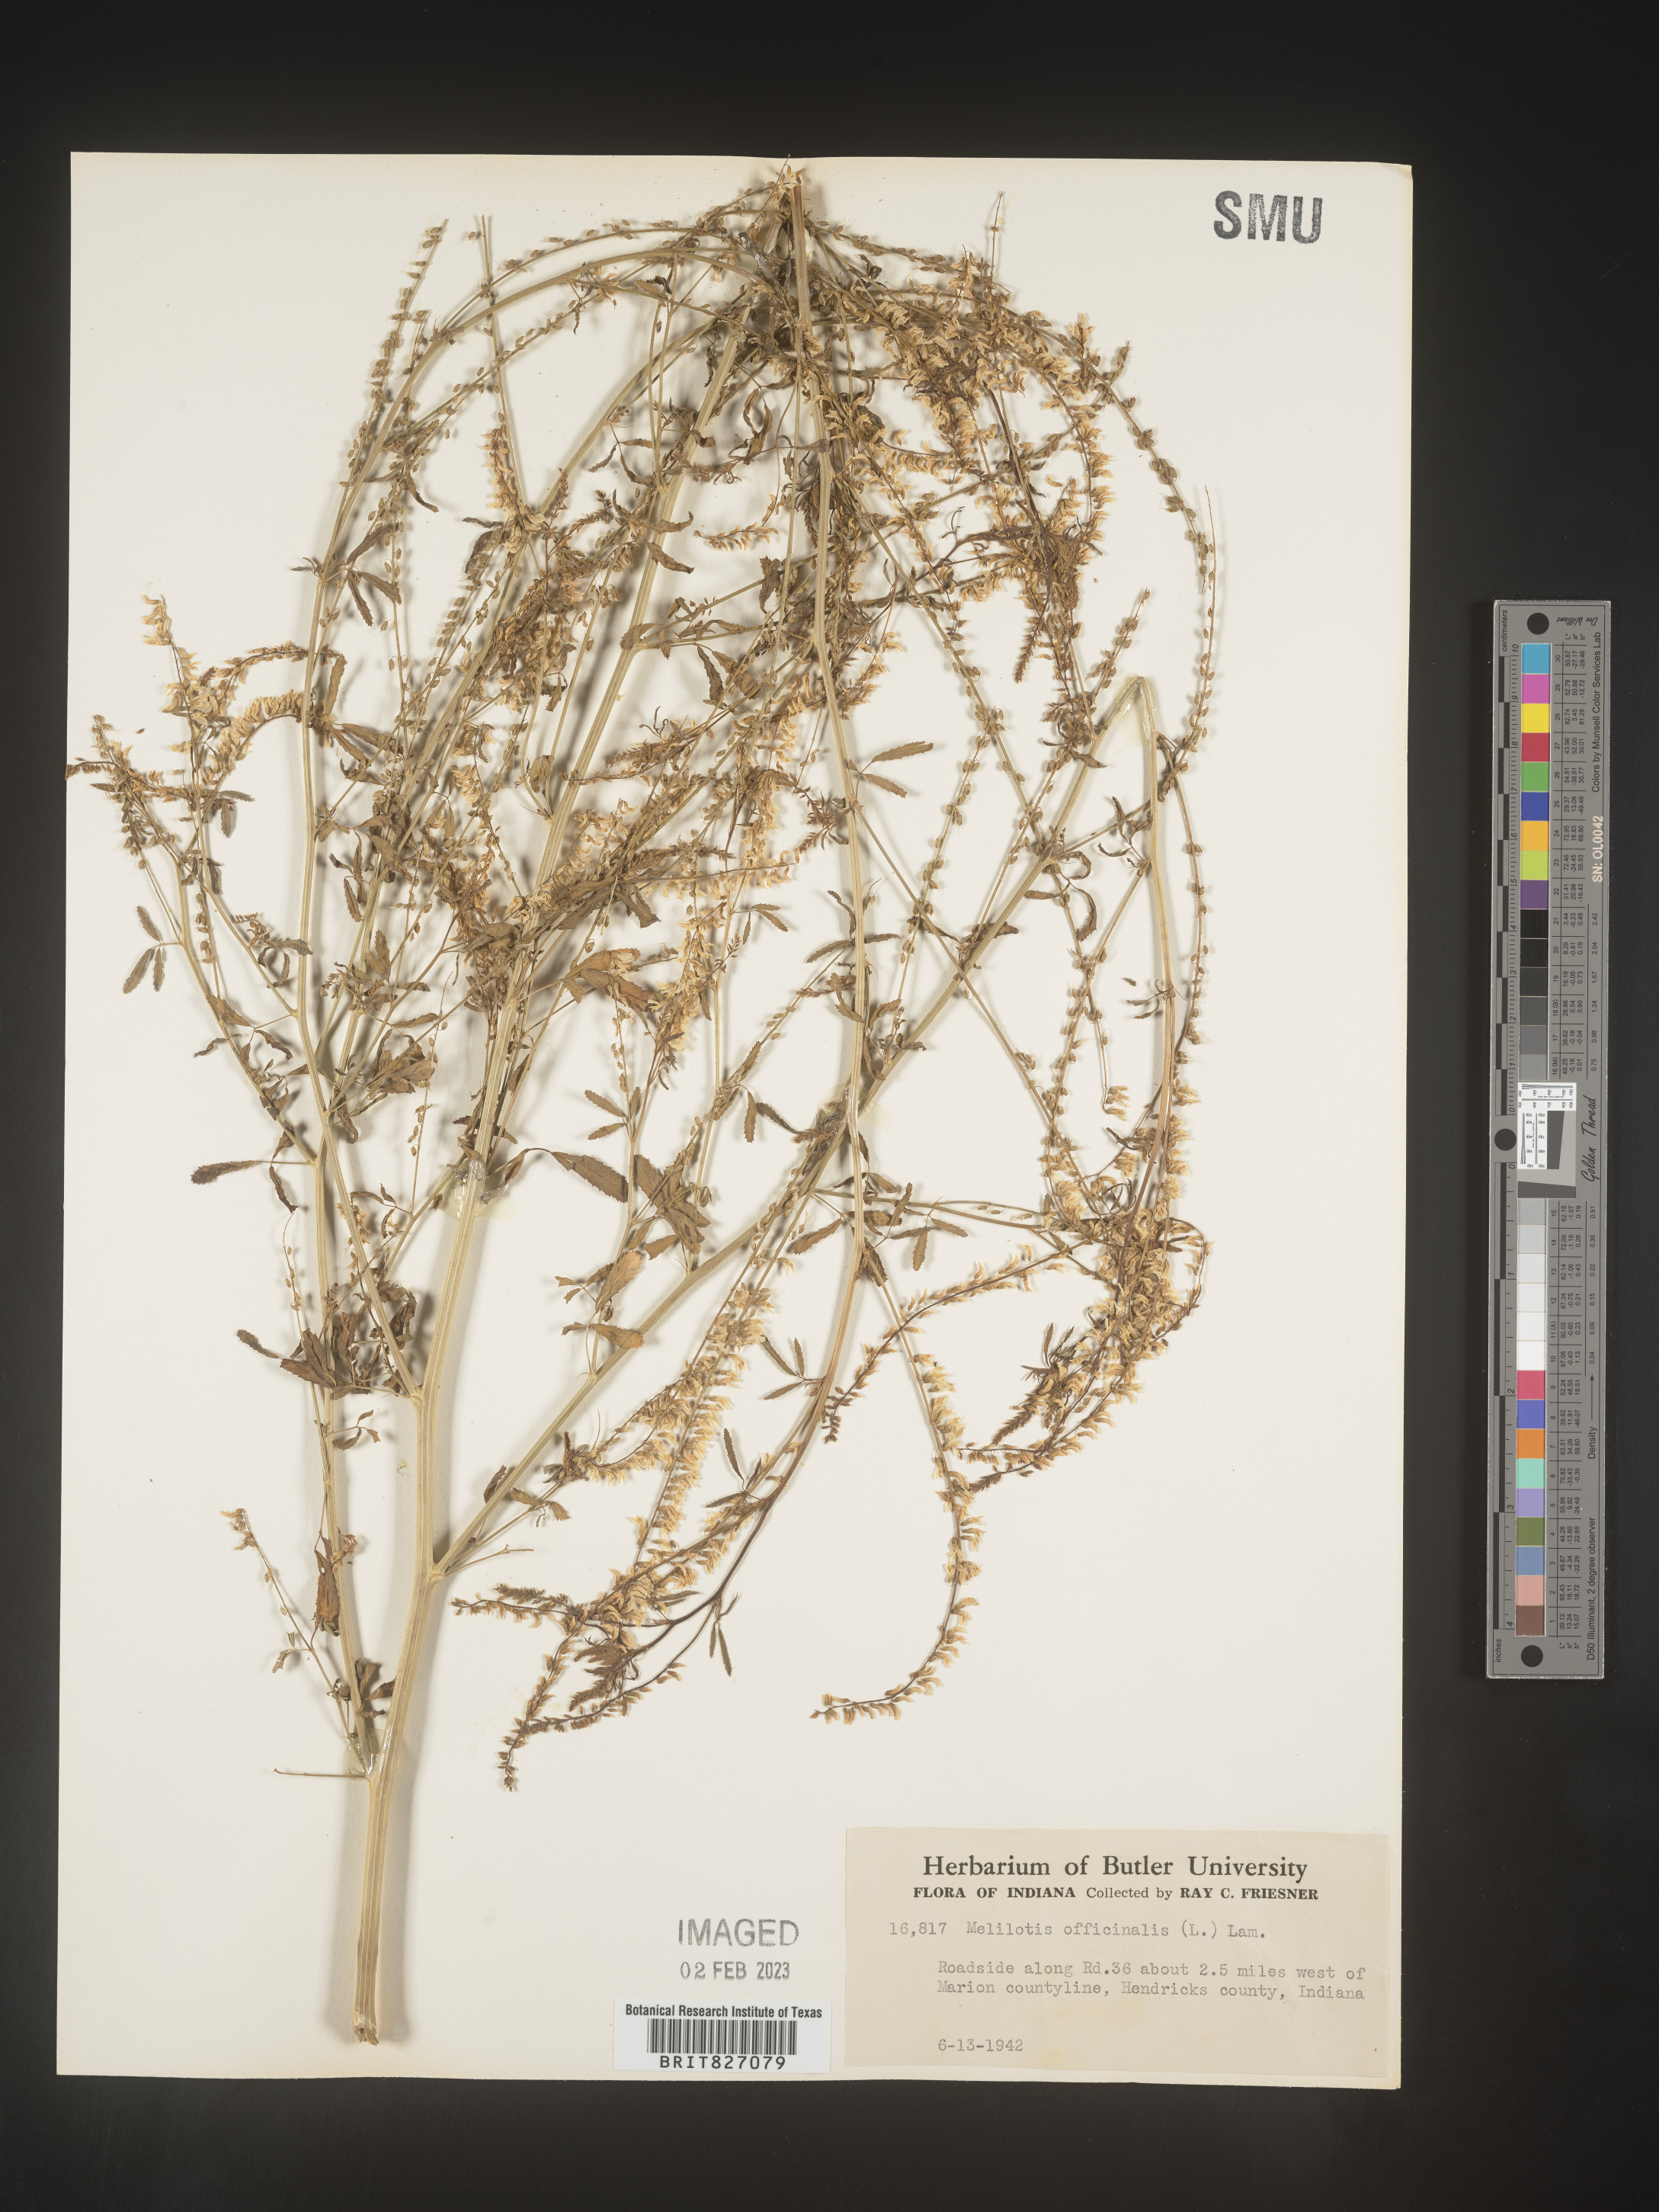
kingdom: Plantae
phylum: Tracheophyta
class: Magnoliopsida
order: Fabales
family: Fabaceae
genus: Melilotus
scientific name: Melilotus officinalis
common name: Sweetclover
